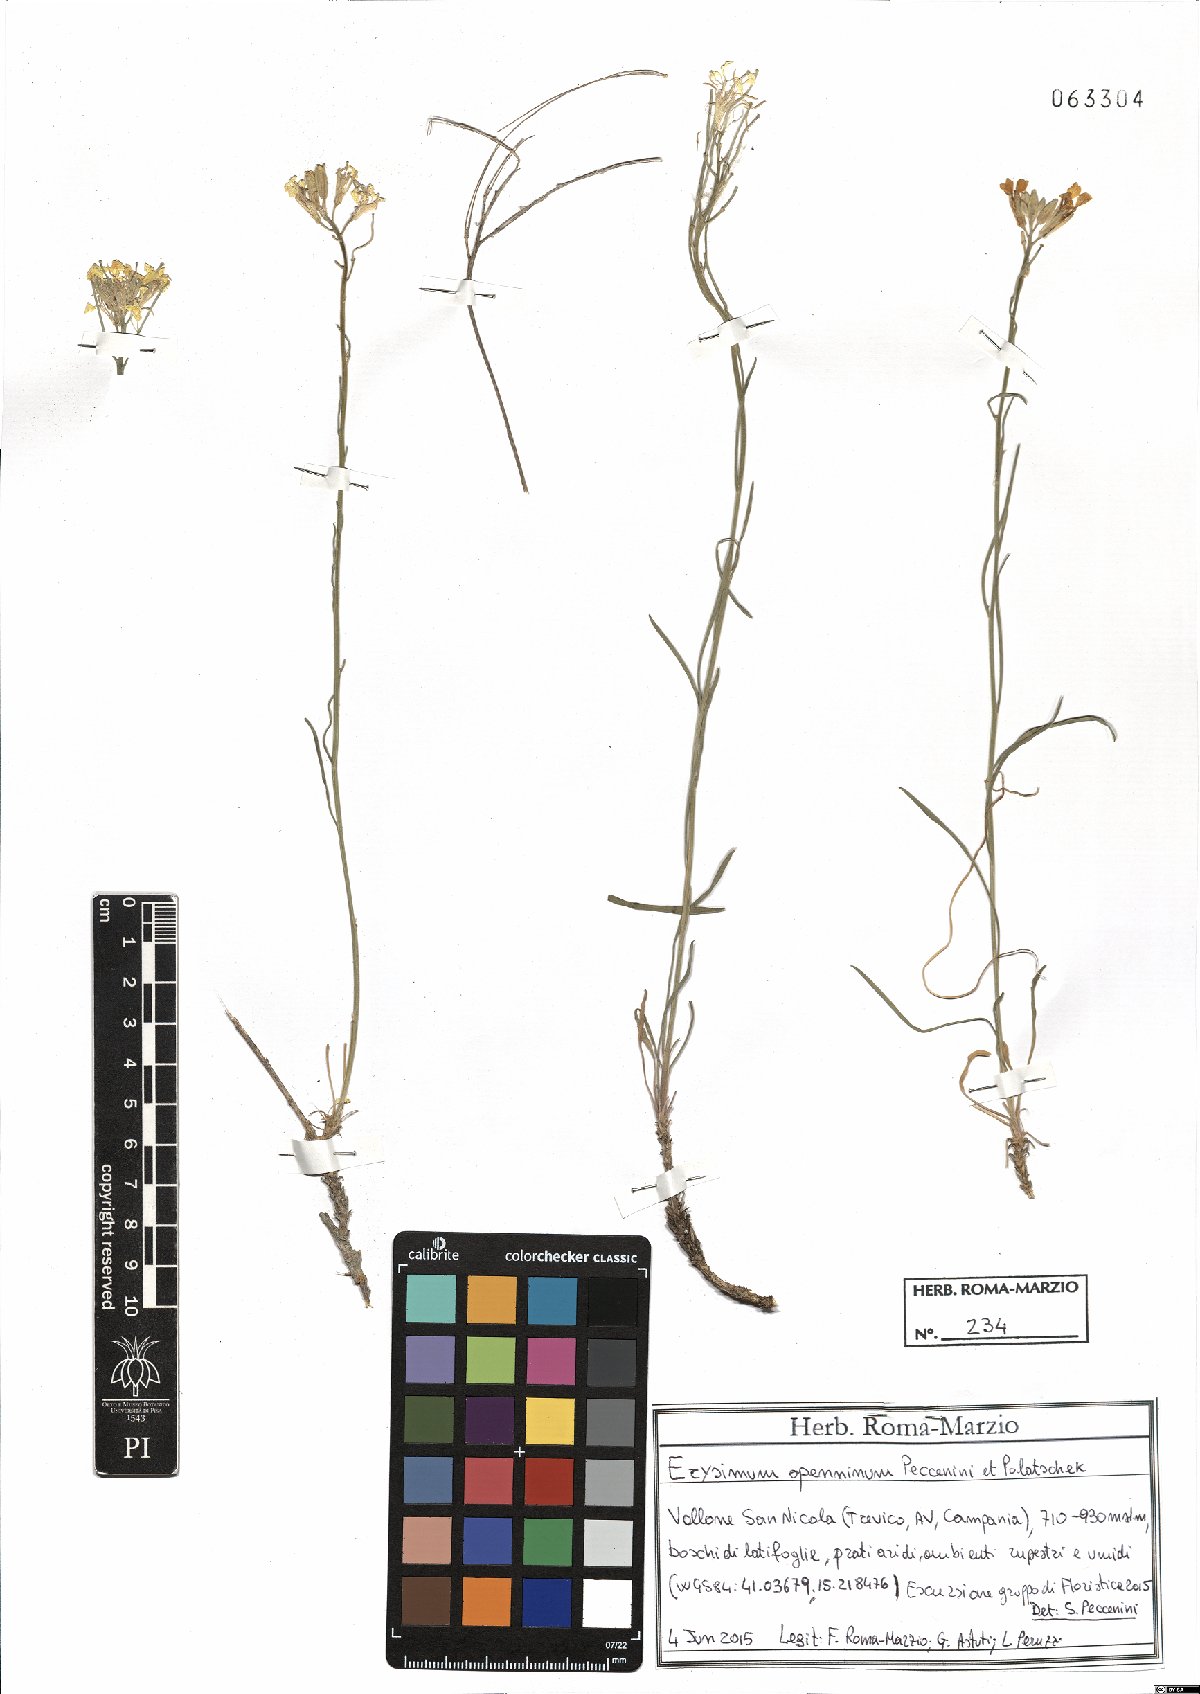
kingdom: Plantae
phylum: Tracheophyta
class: Magnoliopsida
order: Brassicales
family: Brassicaceae
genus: Erysimum
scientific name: Erysimum apenninum
